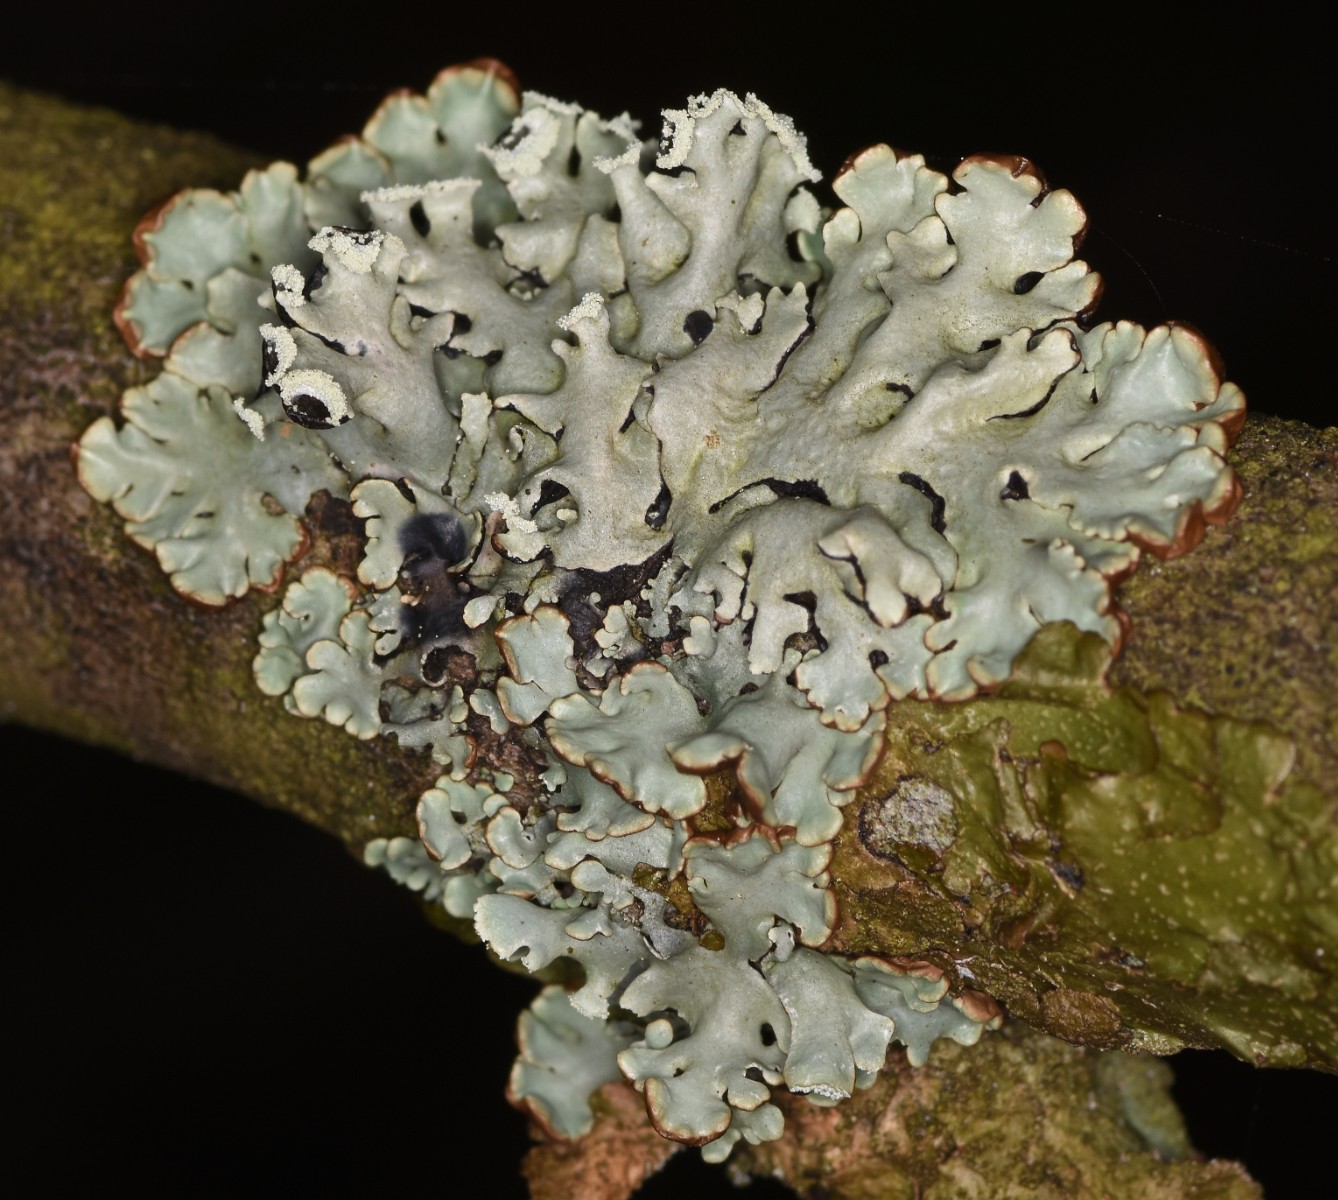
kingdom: Fungi
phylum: Ascomycota
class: Lecanoromycetes
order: Lecanorales
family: Parmeliaceae
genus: Hypogymnia
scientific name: Hypogymnia physodes
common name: almindelig kvistlav
